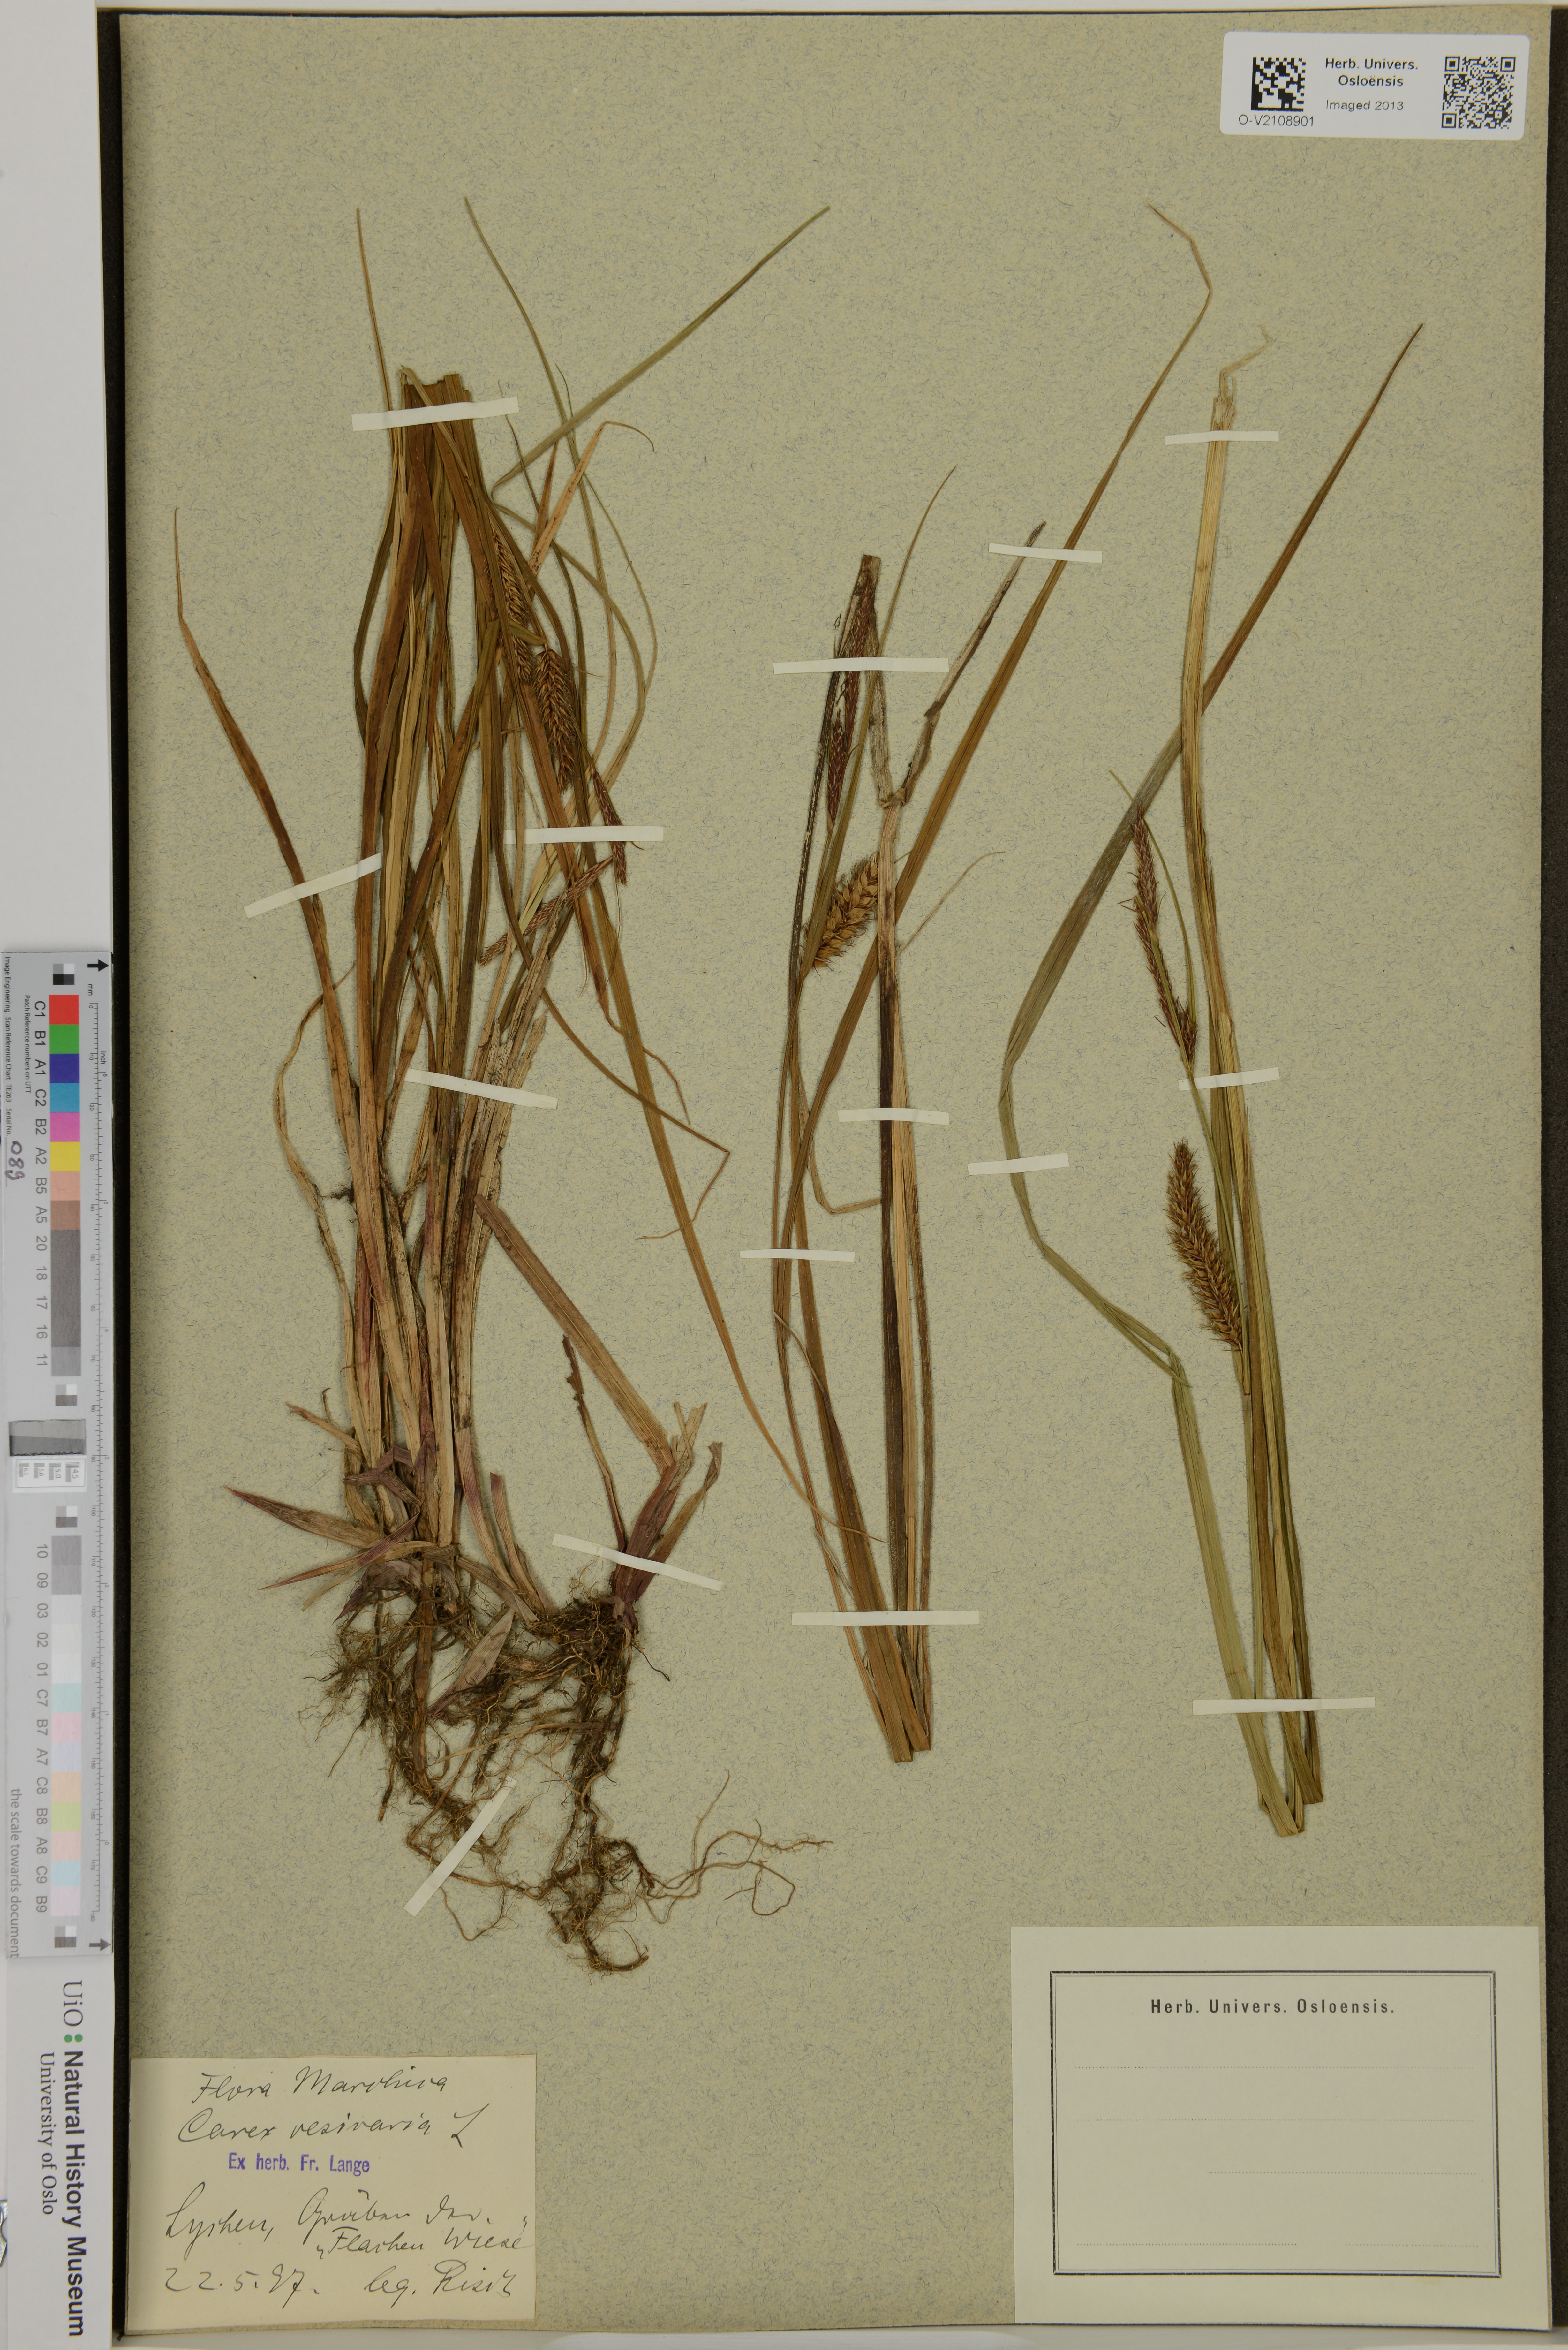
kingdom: Plantae
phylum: Tracheophyta
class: Liliopsida
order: Poales
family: Cyperaceae
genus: Carex
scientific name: Carex vesicaria
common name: Bladder-sedge
